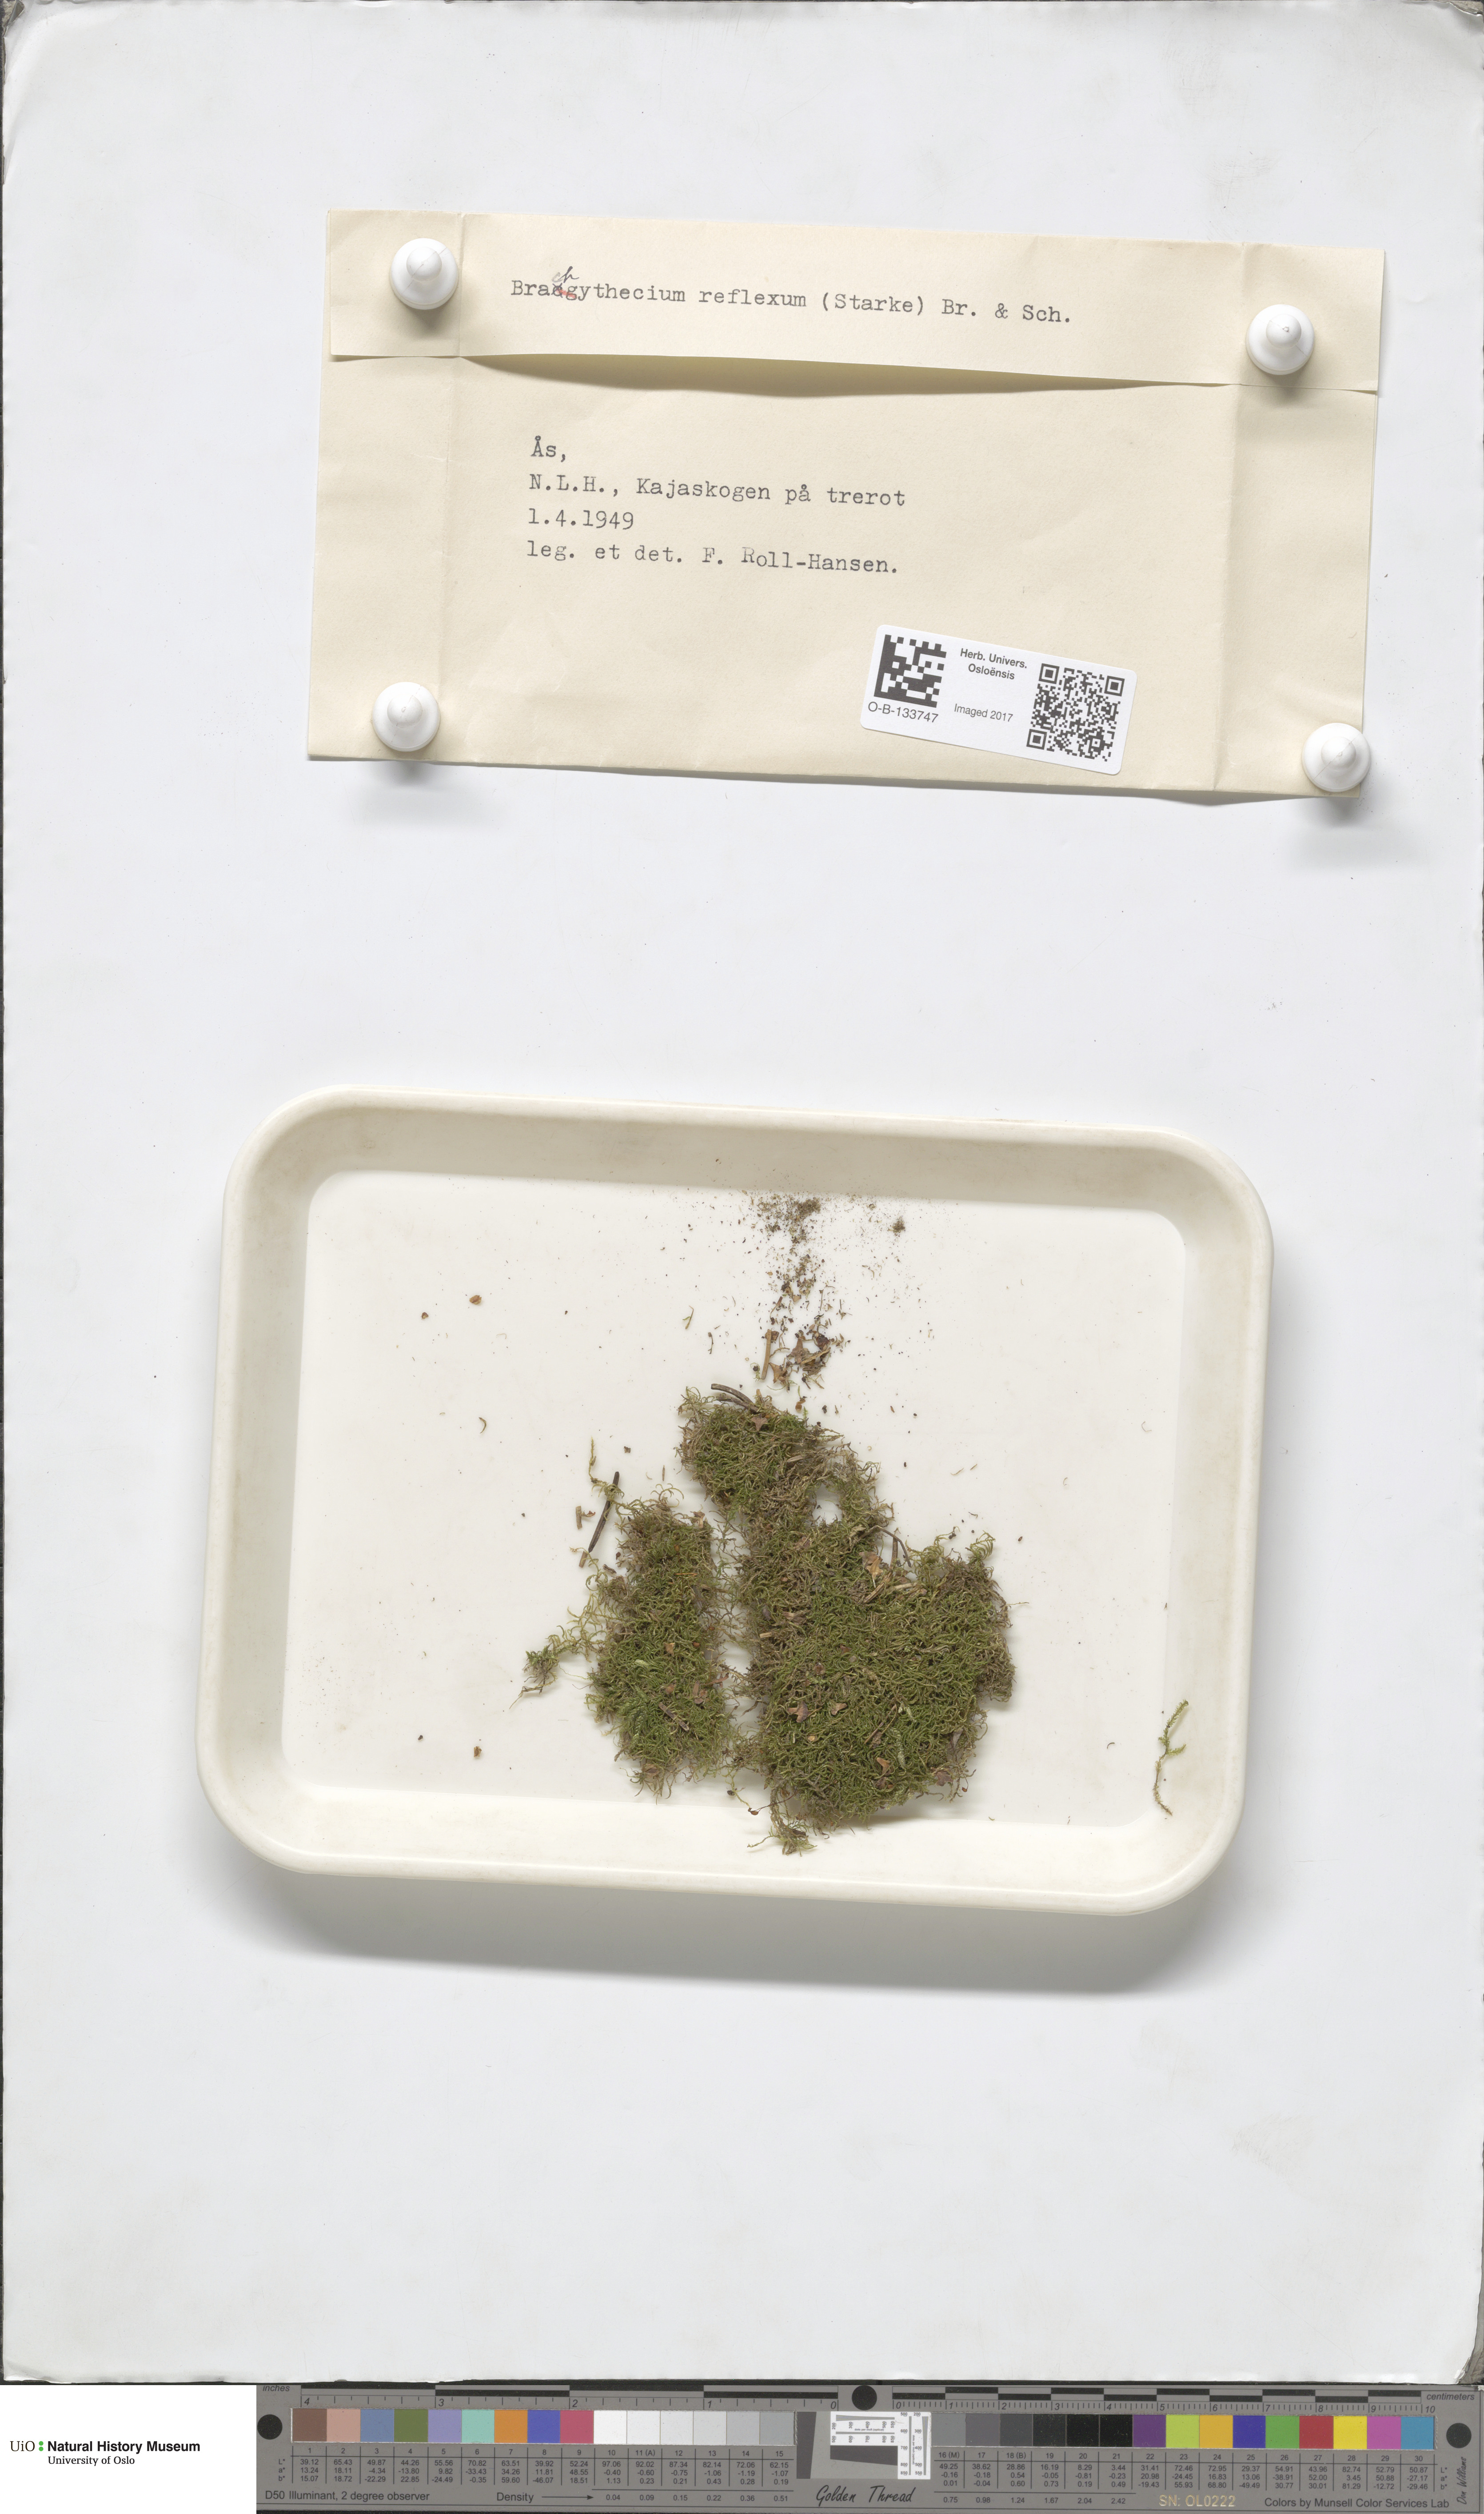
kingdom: Plantae
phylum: Bryophyta
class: Bryopsida
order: Hypnales
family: Brachytheciaceae
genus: Sciuro-hypnum
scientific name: Sciuro-hypnum reflexum
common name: Reflexed feather-moss
